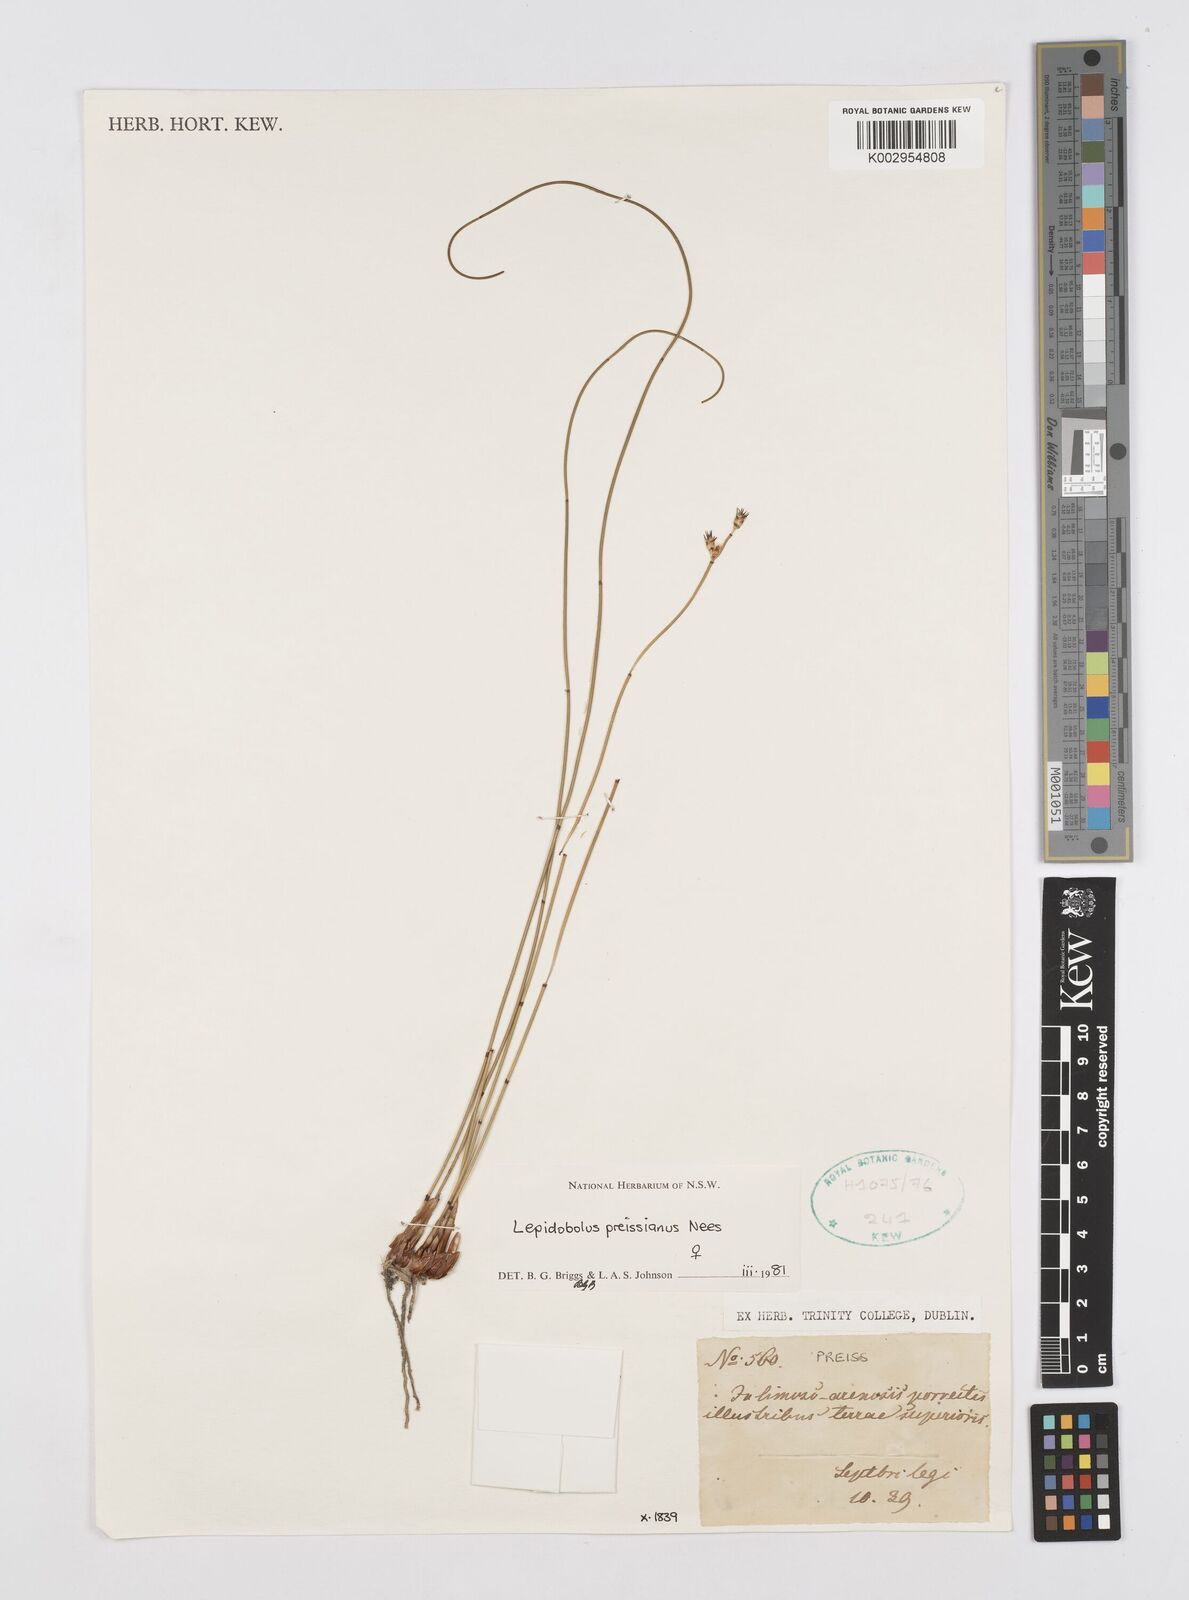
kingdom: Plantae
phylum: Tracheophyta
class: Liliopsida
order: Poales
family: Restionaceae
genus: Lepidobolus
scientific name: Lepidobolus preissianus
